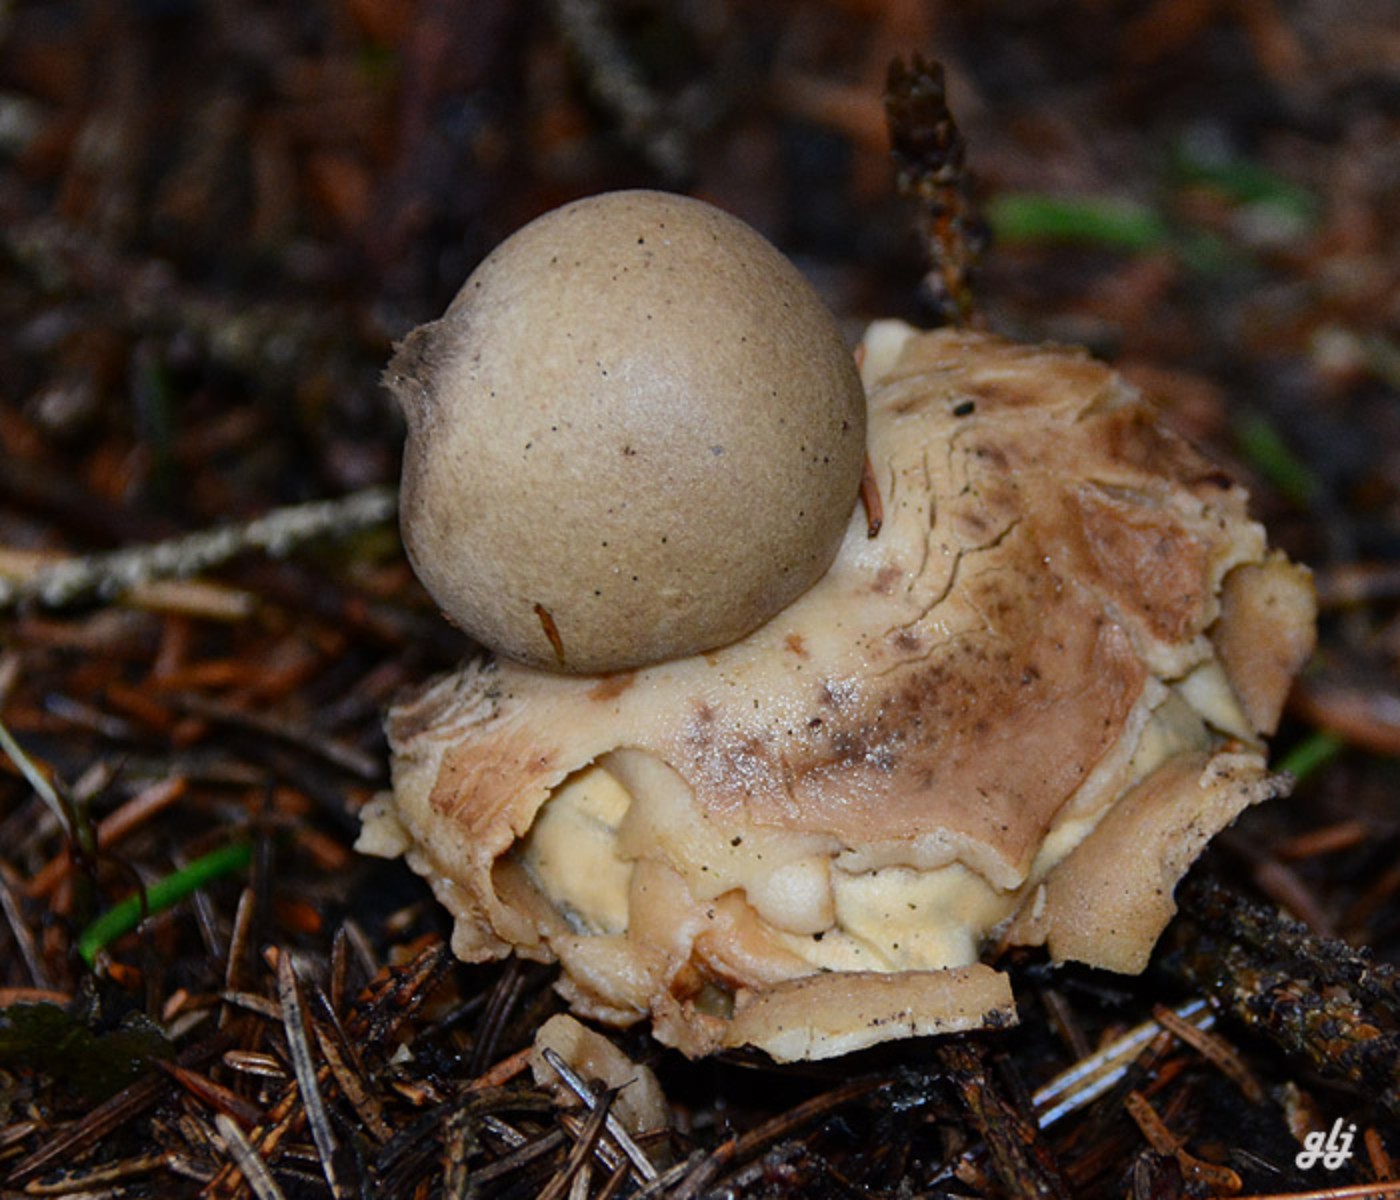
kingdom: Fungi
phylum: Basidiomycota
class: Agaricomycetes
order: Geastrales
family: Geastraceae
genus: Geastrum
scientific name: Geastrum
